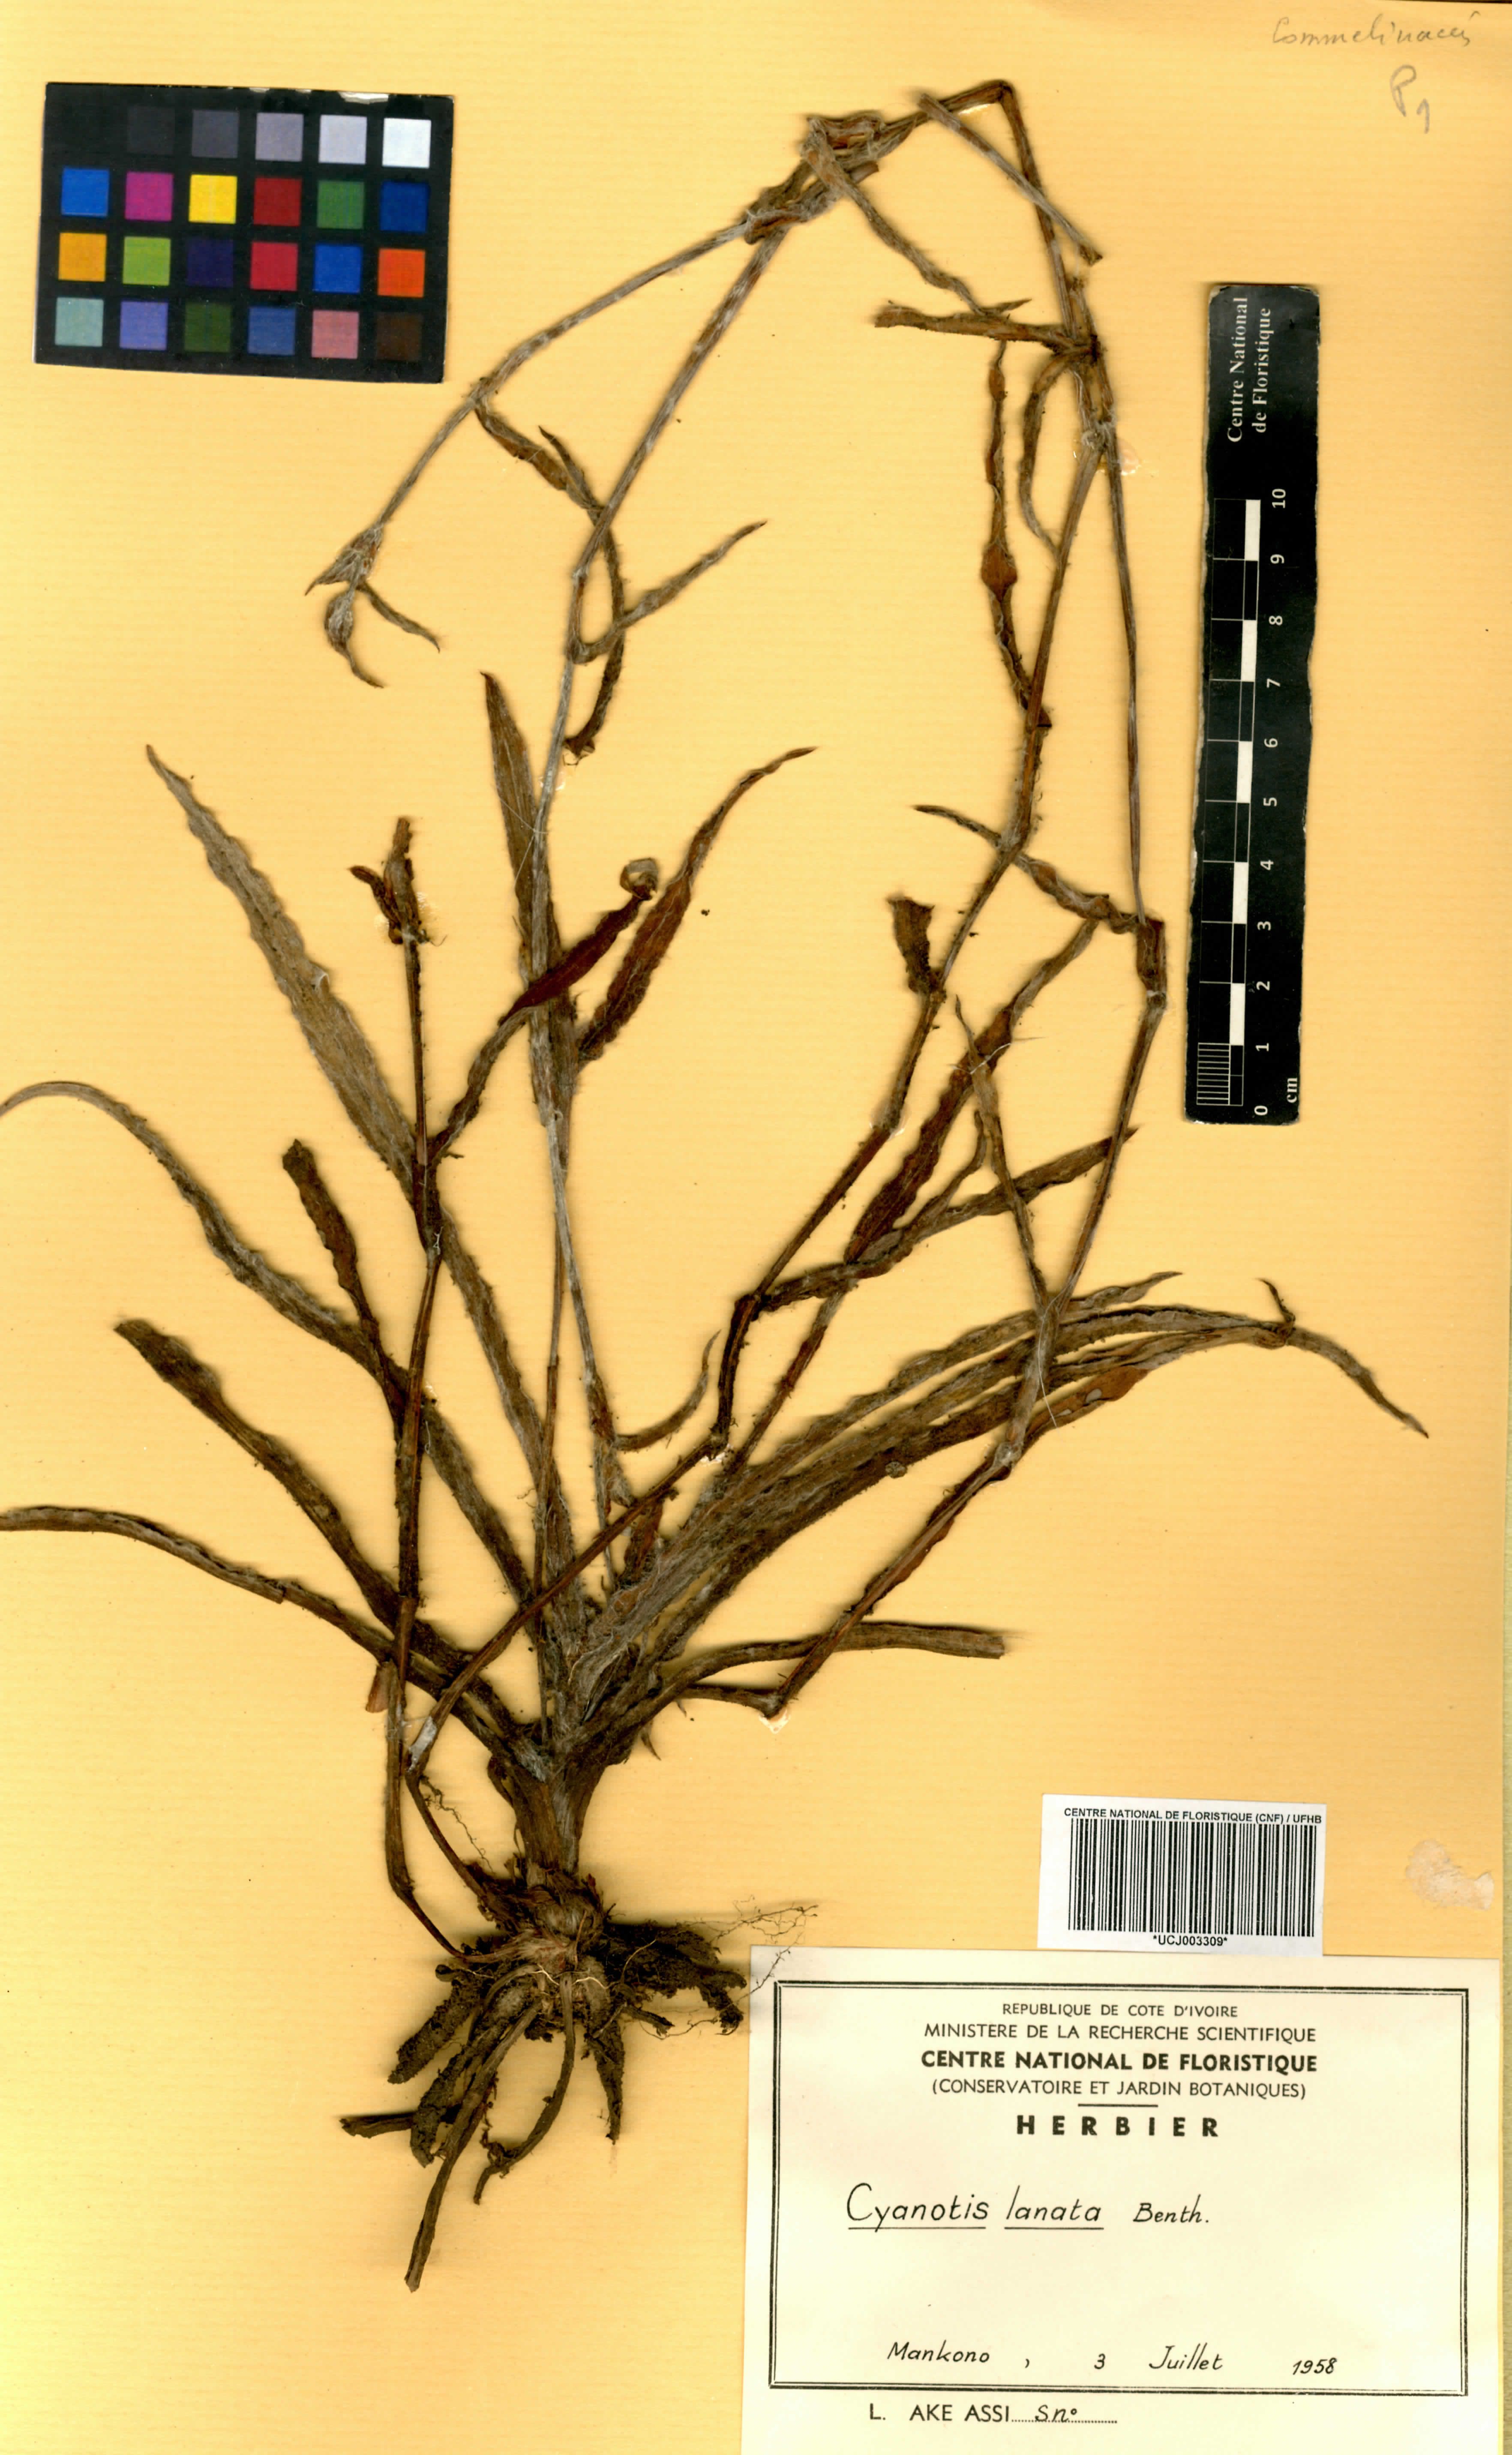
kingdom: Plantae
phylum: Tracheophyta
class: Liliopsida
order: Commelinales
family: Commelinaceae
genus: Cyanotis
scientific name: Cyanotis lanata
